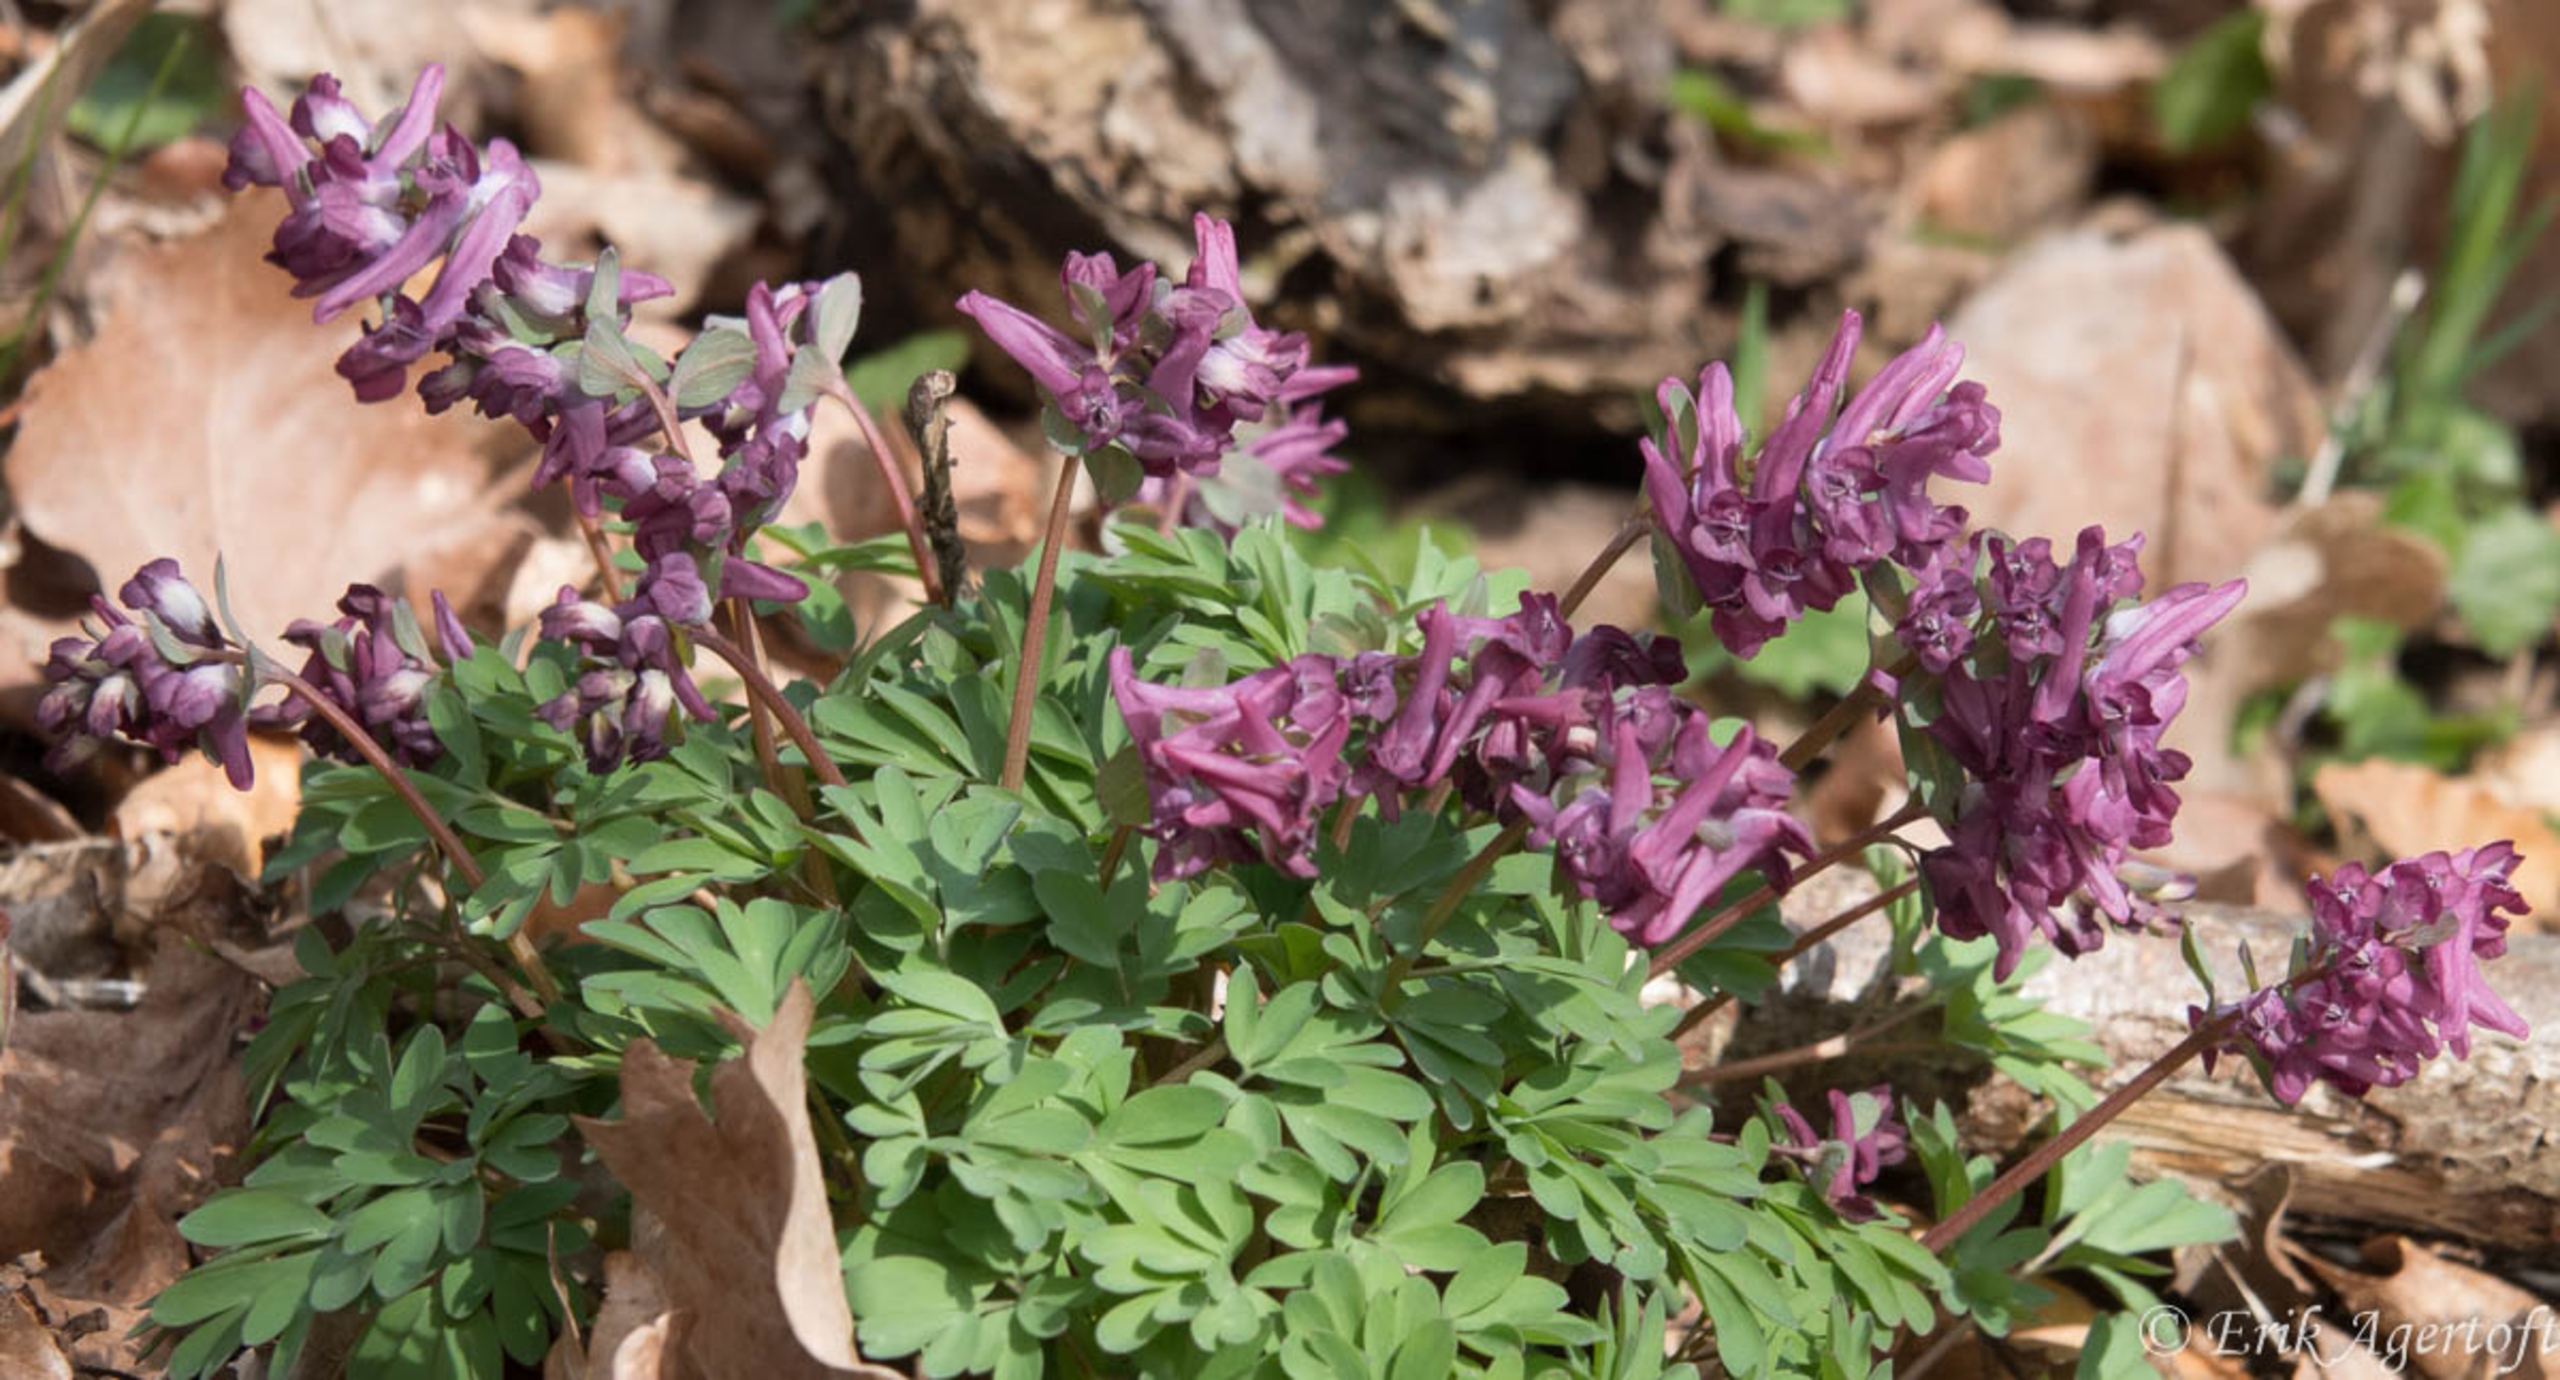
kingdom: Plantae
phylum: Tracheophyta
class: Magnoliopsida
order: Ranunculales
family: Papaveraceae
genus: Corydalis
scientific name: Corydalis cava
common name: Hulrodet lærkespore
